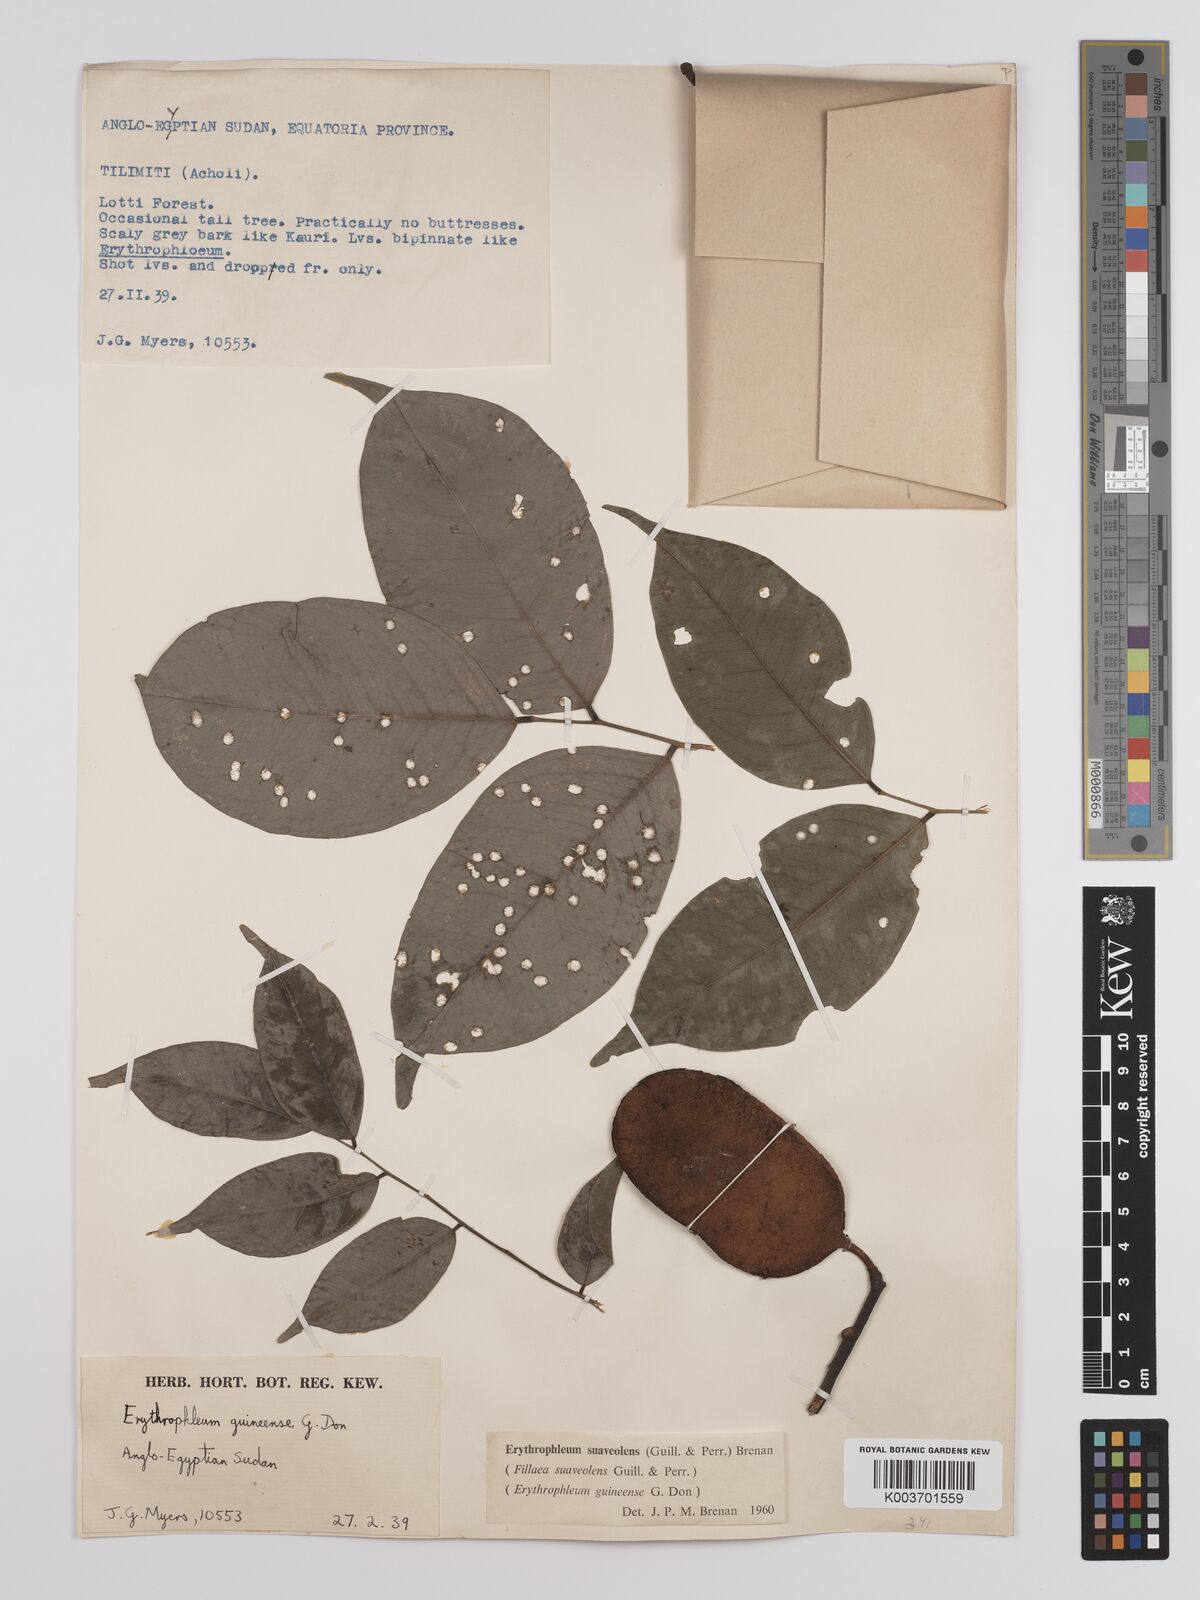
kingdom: Plantae
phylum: Tracheophyta
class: Magnoliopsida
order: Fabales
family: Fabaceae
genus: Erythrophleum
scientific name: Erythrophleum suaveolens
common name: Ordeal tree
